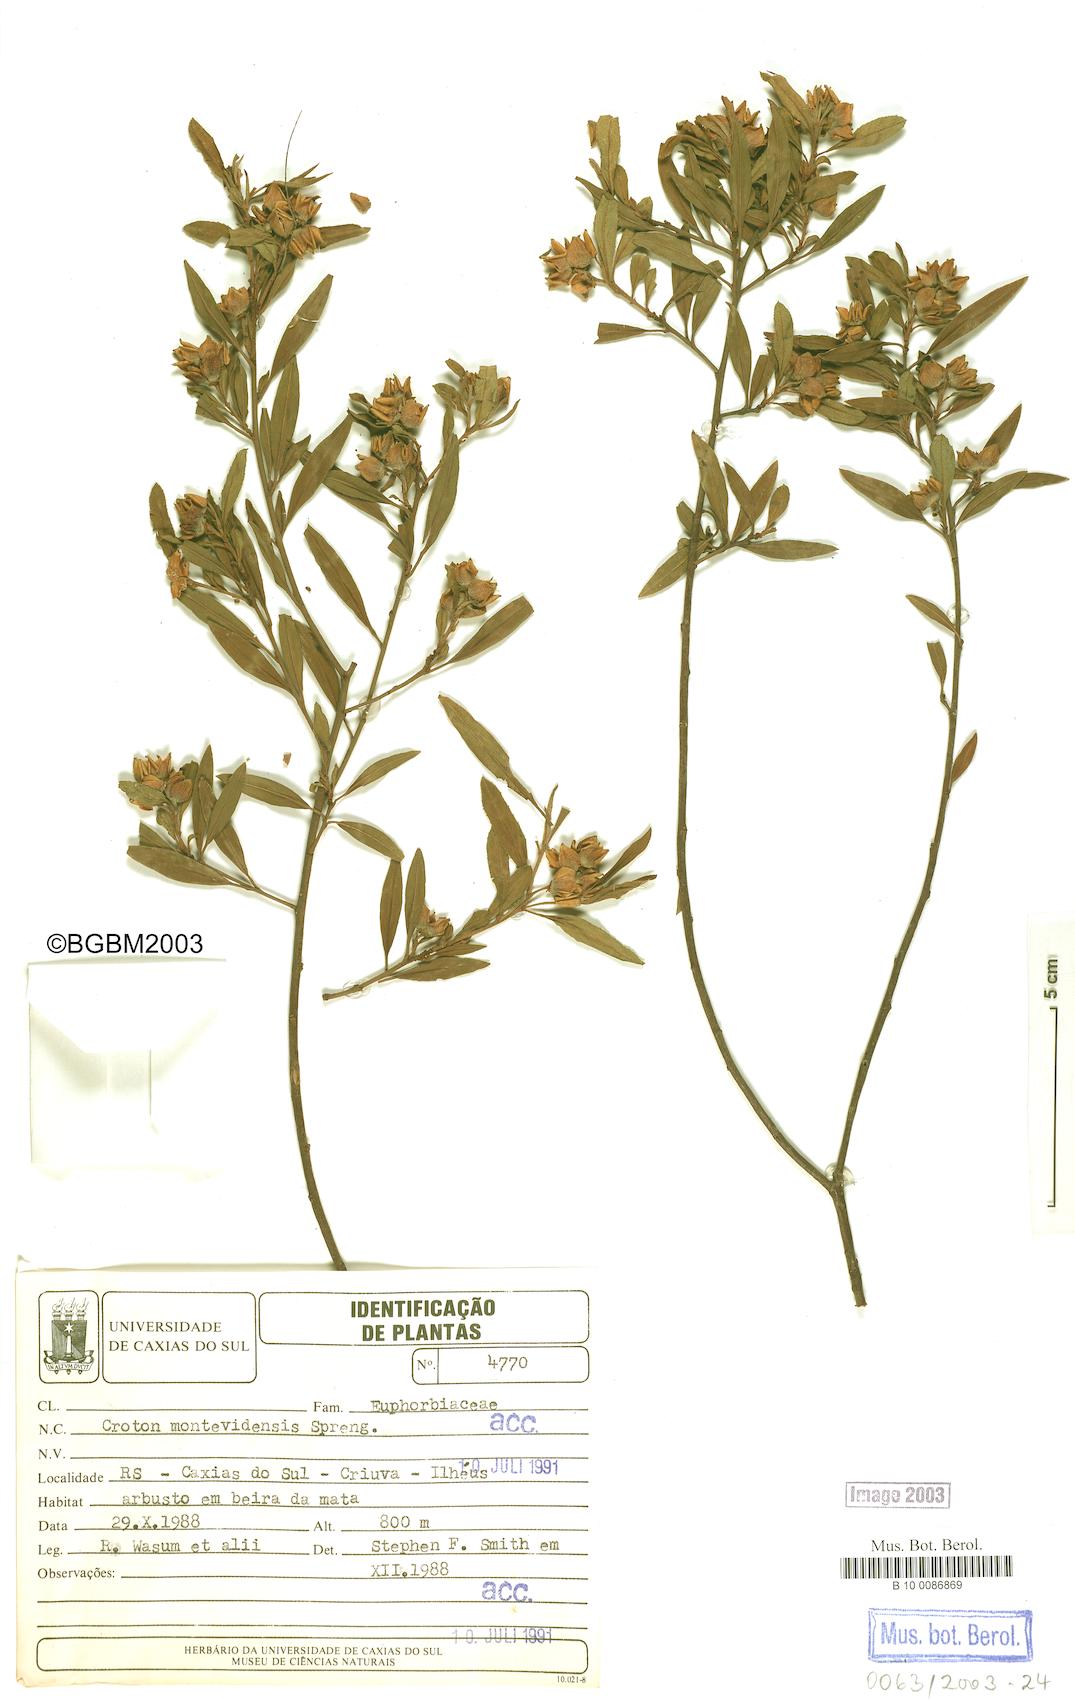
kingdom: Plantae
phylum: Tracheophyta
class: Magnoliopsida
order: Malpighiales
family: Euphorbiaceae
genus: Croton
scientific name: Croton montevidensis
